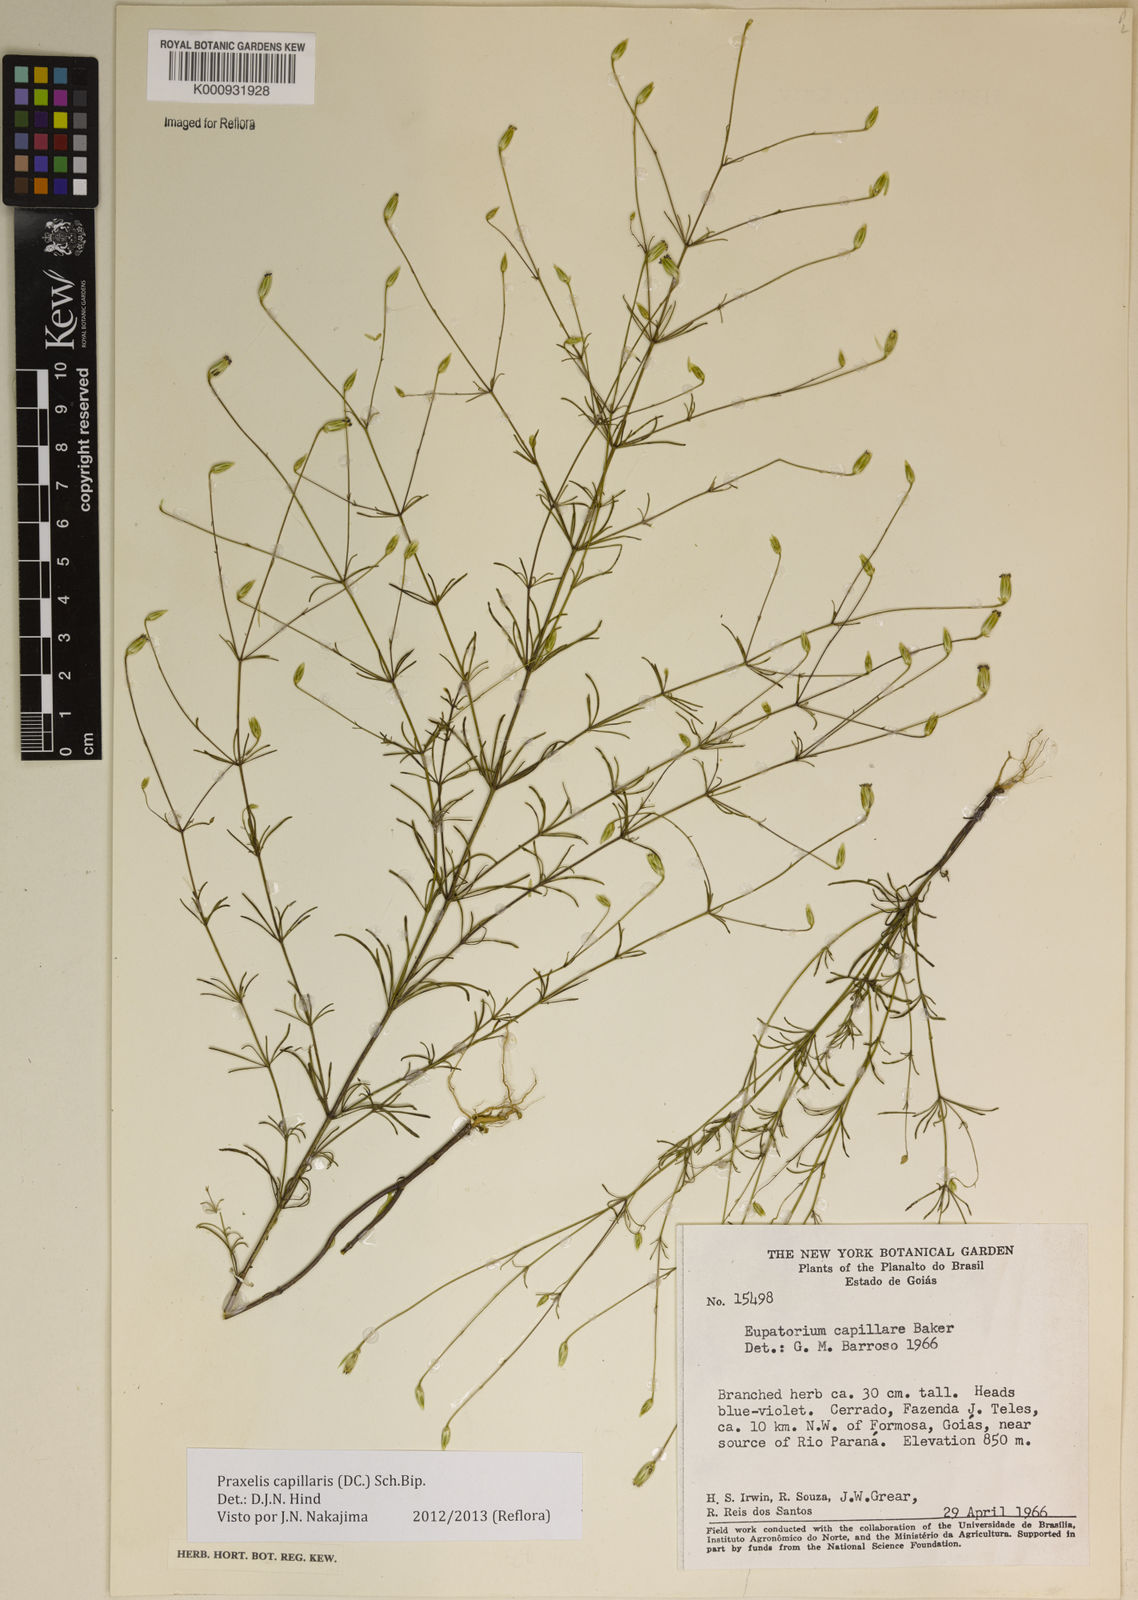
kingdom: Plantae
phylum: Tracheophyta
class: Magnoliopsida
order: Asterales
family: Asteraceae
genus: Praxelis
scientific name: Praxelis capillaris
